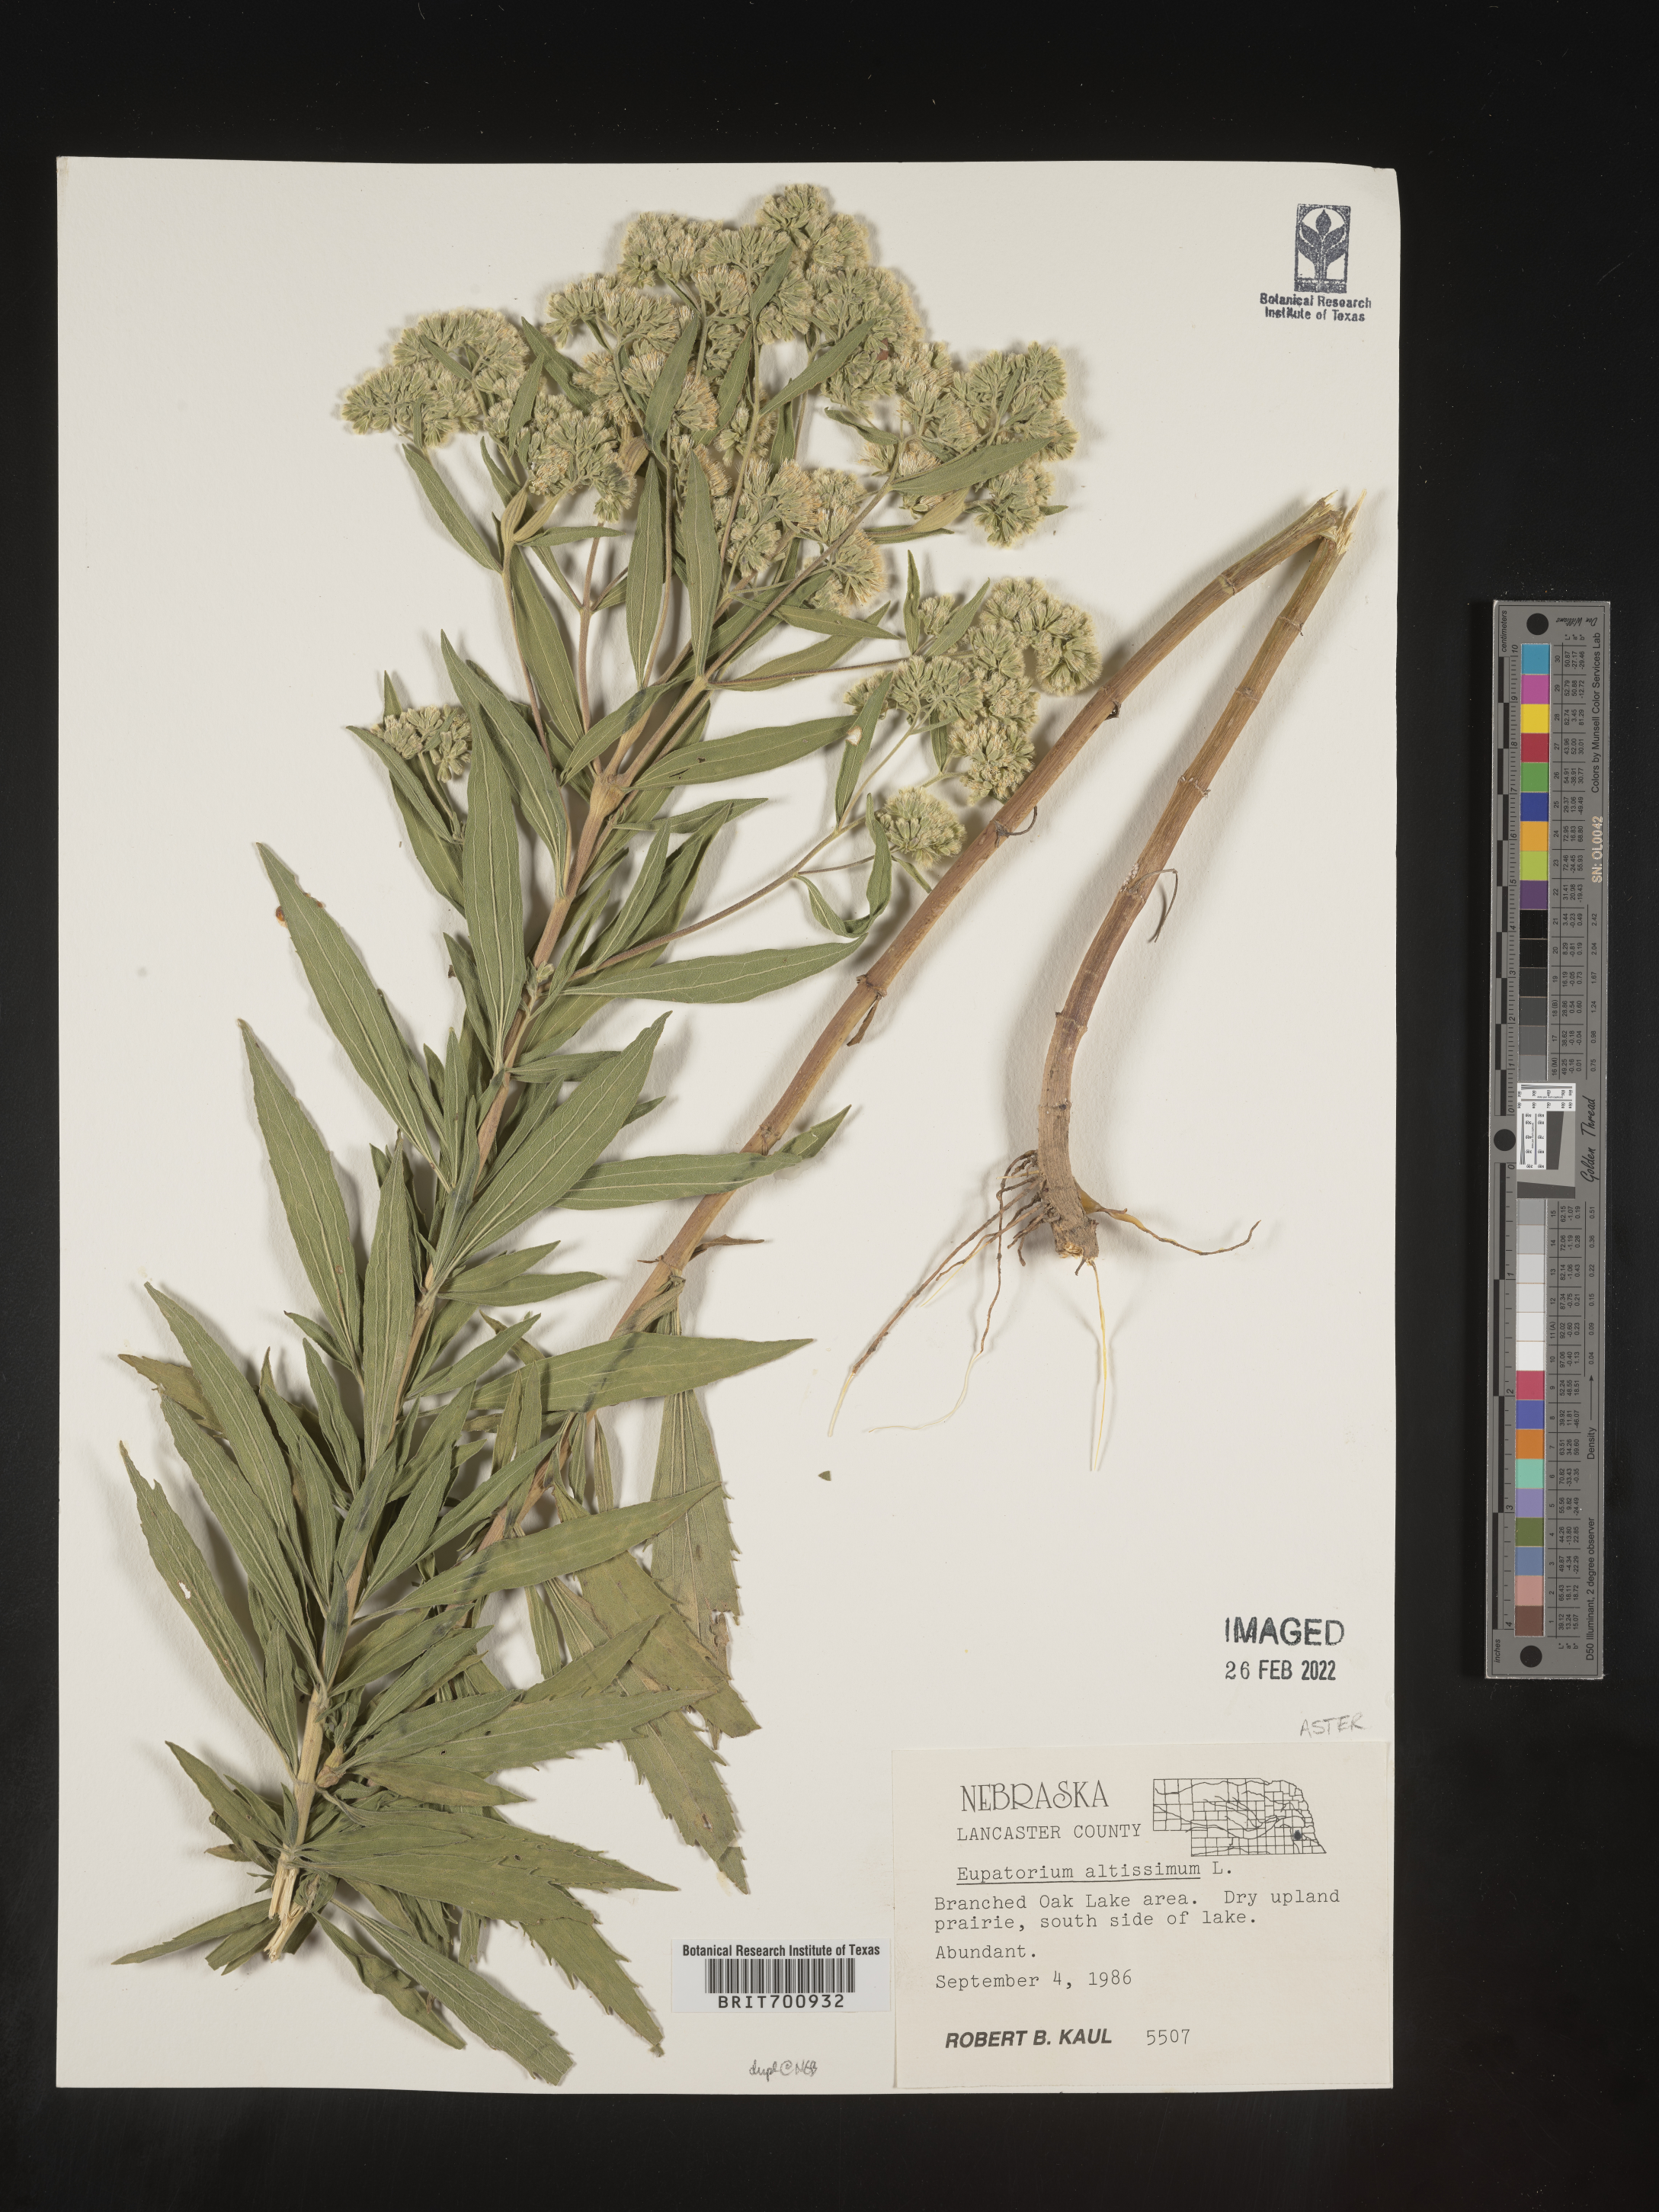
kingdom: Plantae
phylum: Tracheophyta
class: Magnoliopsida
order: Asterales
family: Asteraceae
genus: Eupatorium
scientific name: Eupatorium altissimum
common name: Tall thoroughwort
